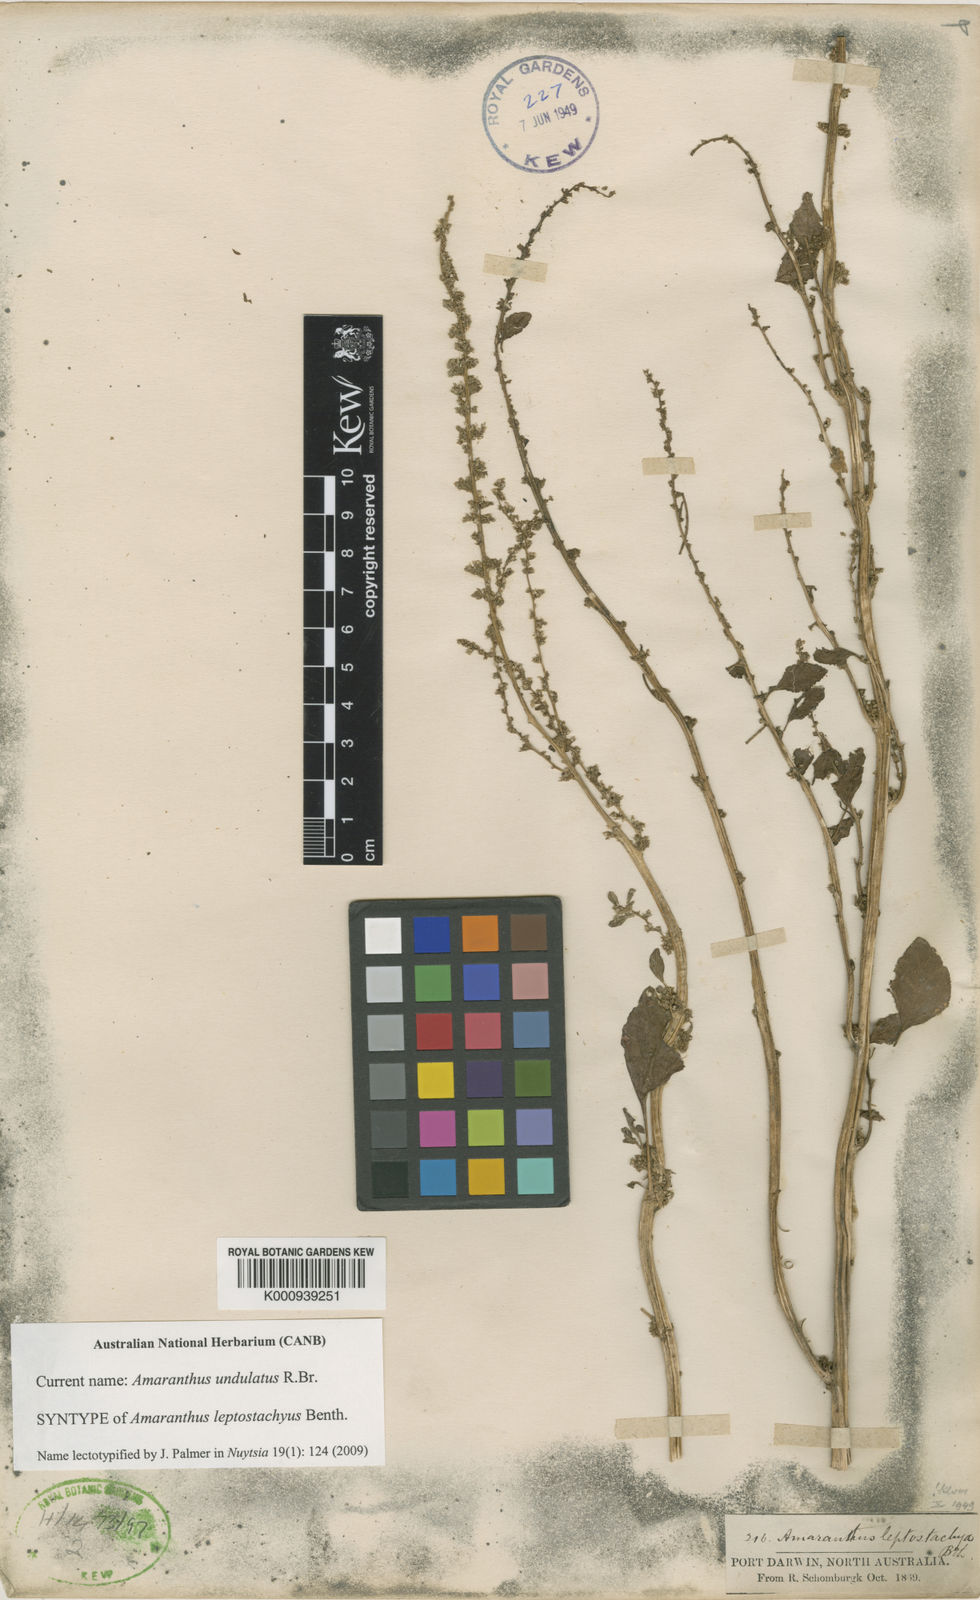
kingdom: Plantae
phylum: Tracheophyta
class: Magnoliopsida
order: Caryophyllales
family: Amaranthaceae
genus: Amaranthus
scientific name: Amaranthus undulatus
